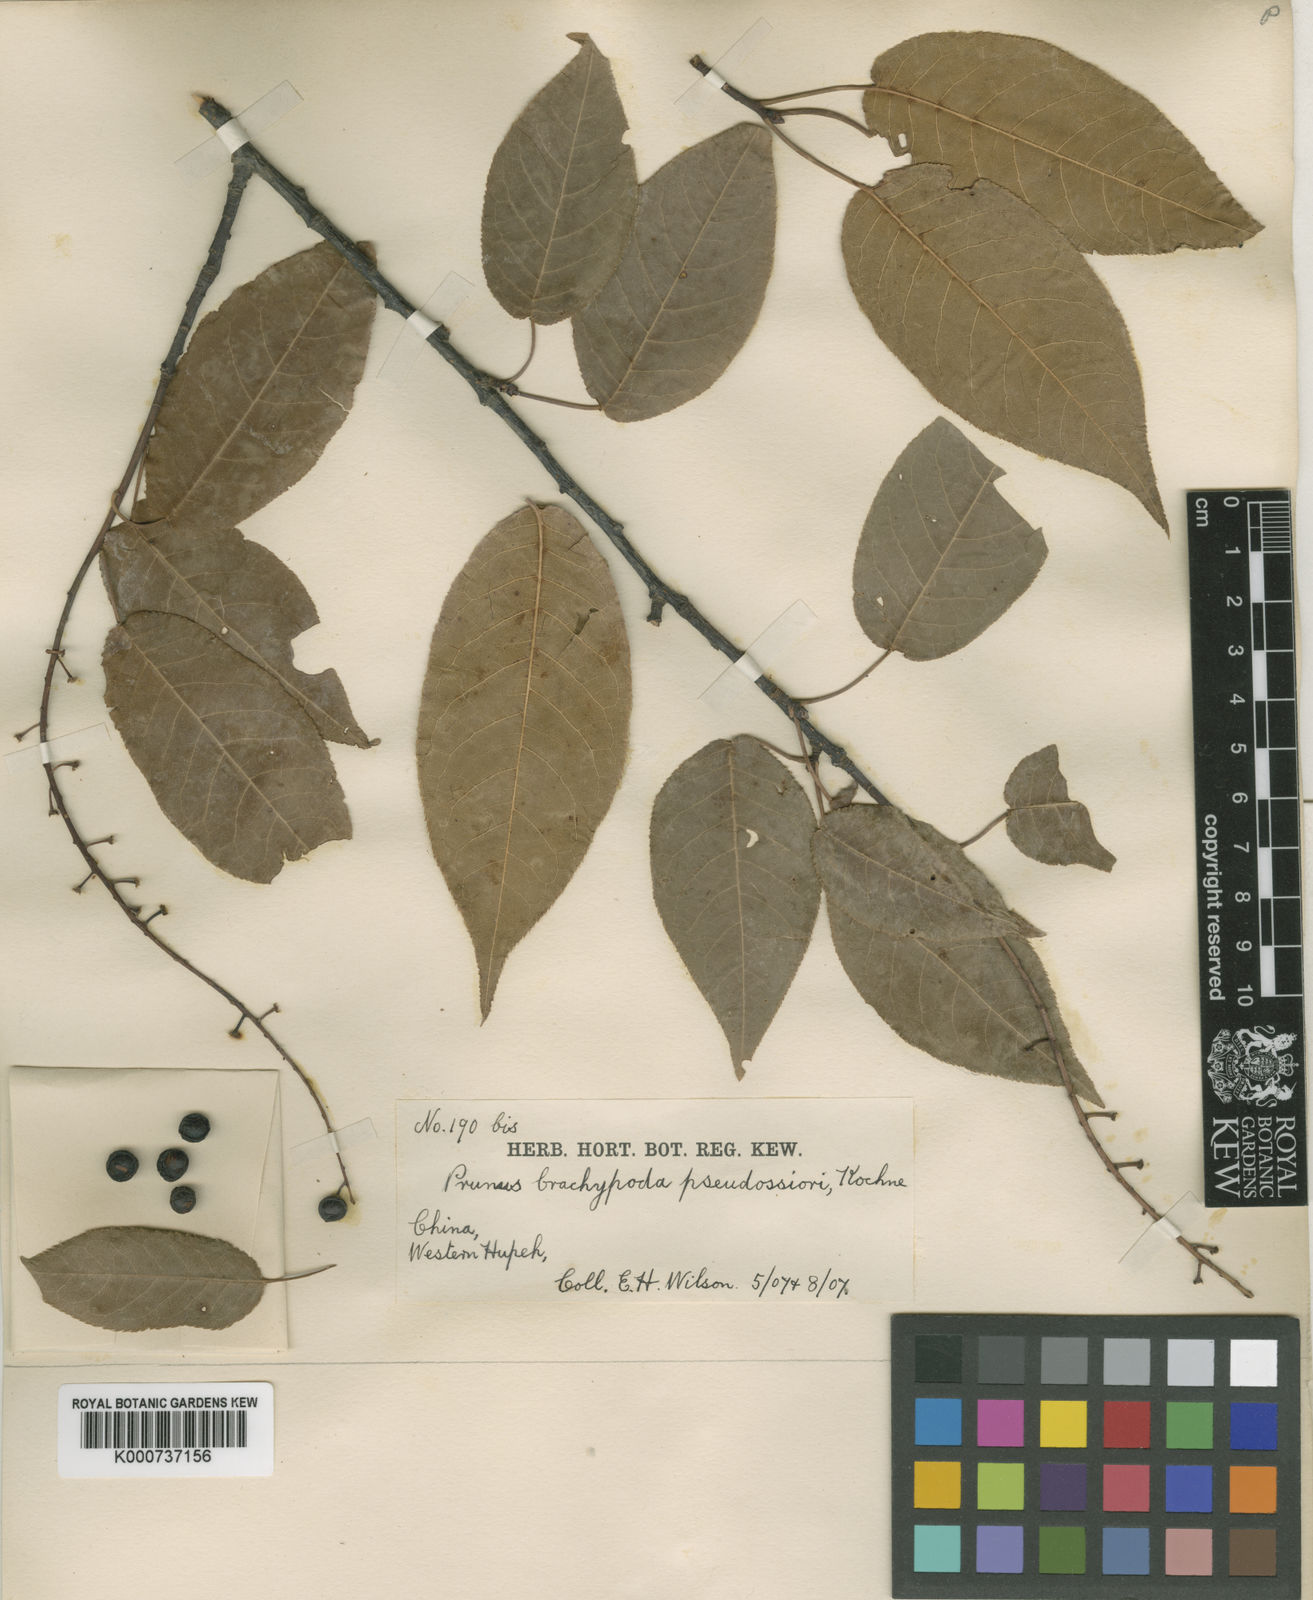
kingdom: Plantae
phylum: Tracheophyta
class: Magnoliopsida
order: Rosales
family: Rosaceae
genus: Prunus
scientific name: Prunus brachypoda
